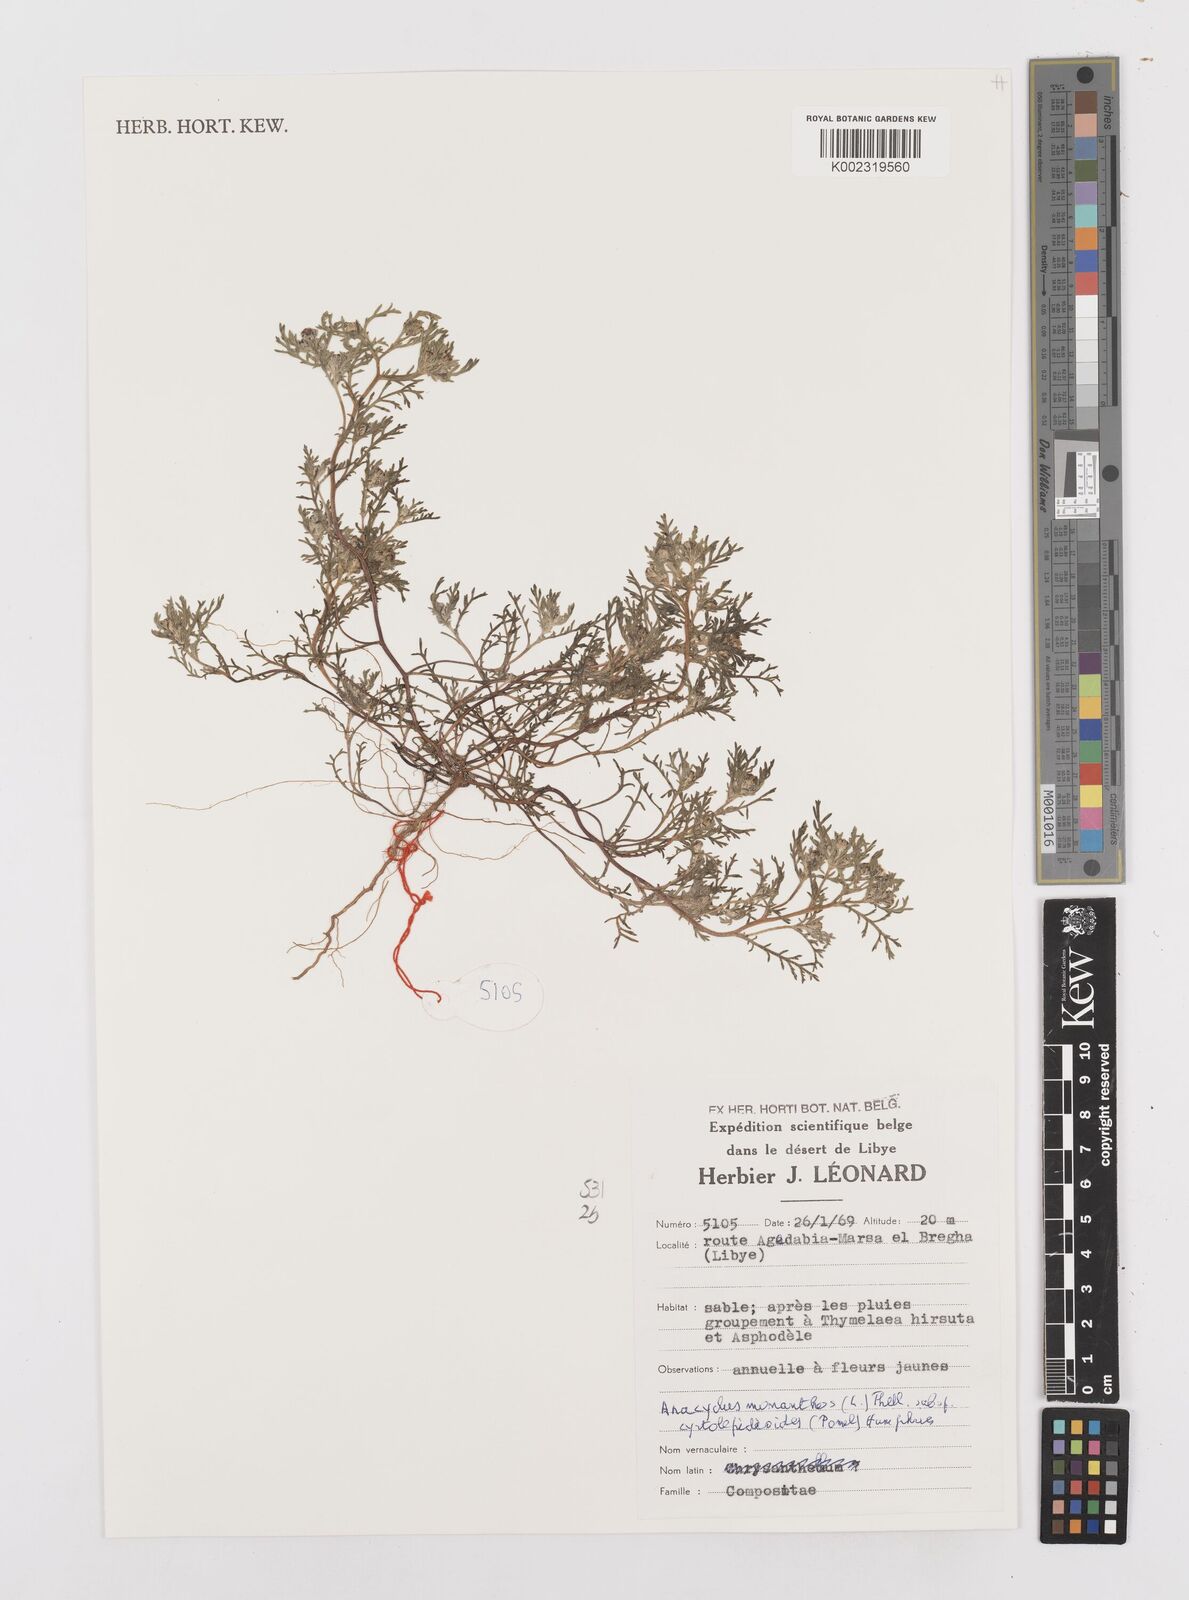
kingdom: Plantae
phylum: Tracheophyta
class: Magnoliopsida
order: Asterales
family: Asteraceae
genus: Anacyclus
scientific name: Anacyclus monanthos
